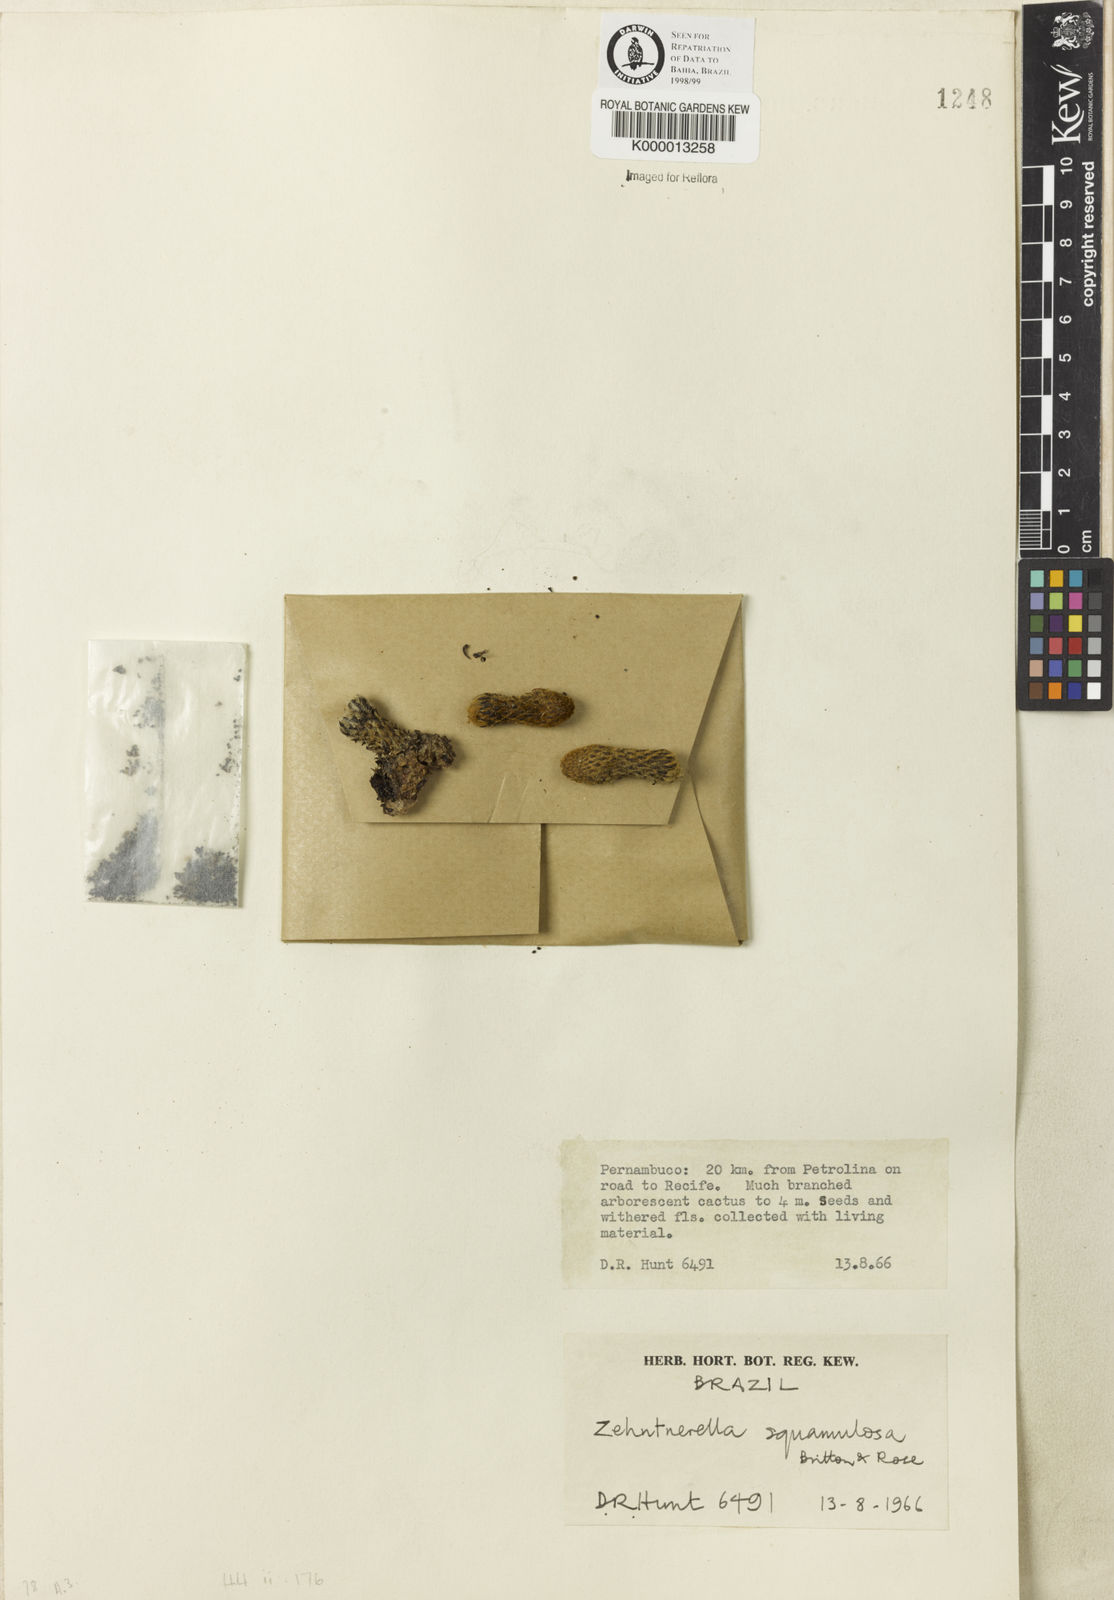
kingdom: Plantae
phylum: Tracheophyta
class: Magnoliopsida
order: Caryophyllales
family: Cactaceae
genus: Facheiroa
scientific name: Facheiroa squamosa
